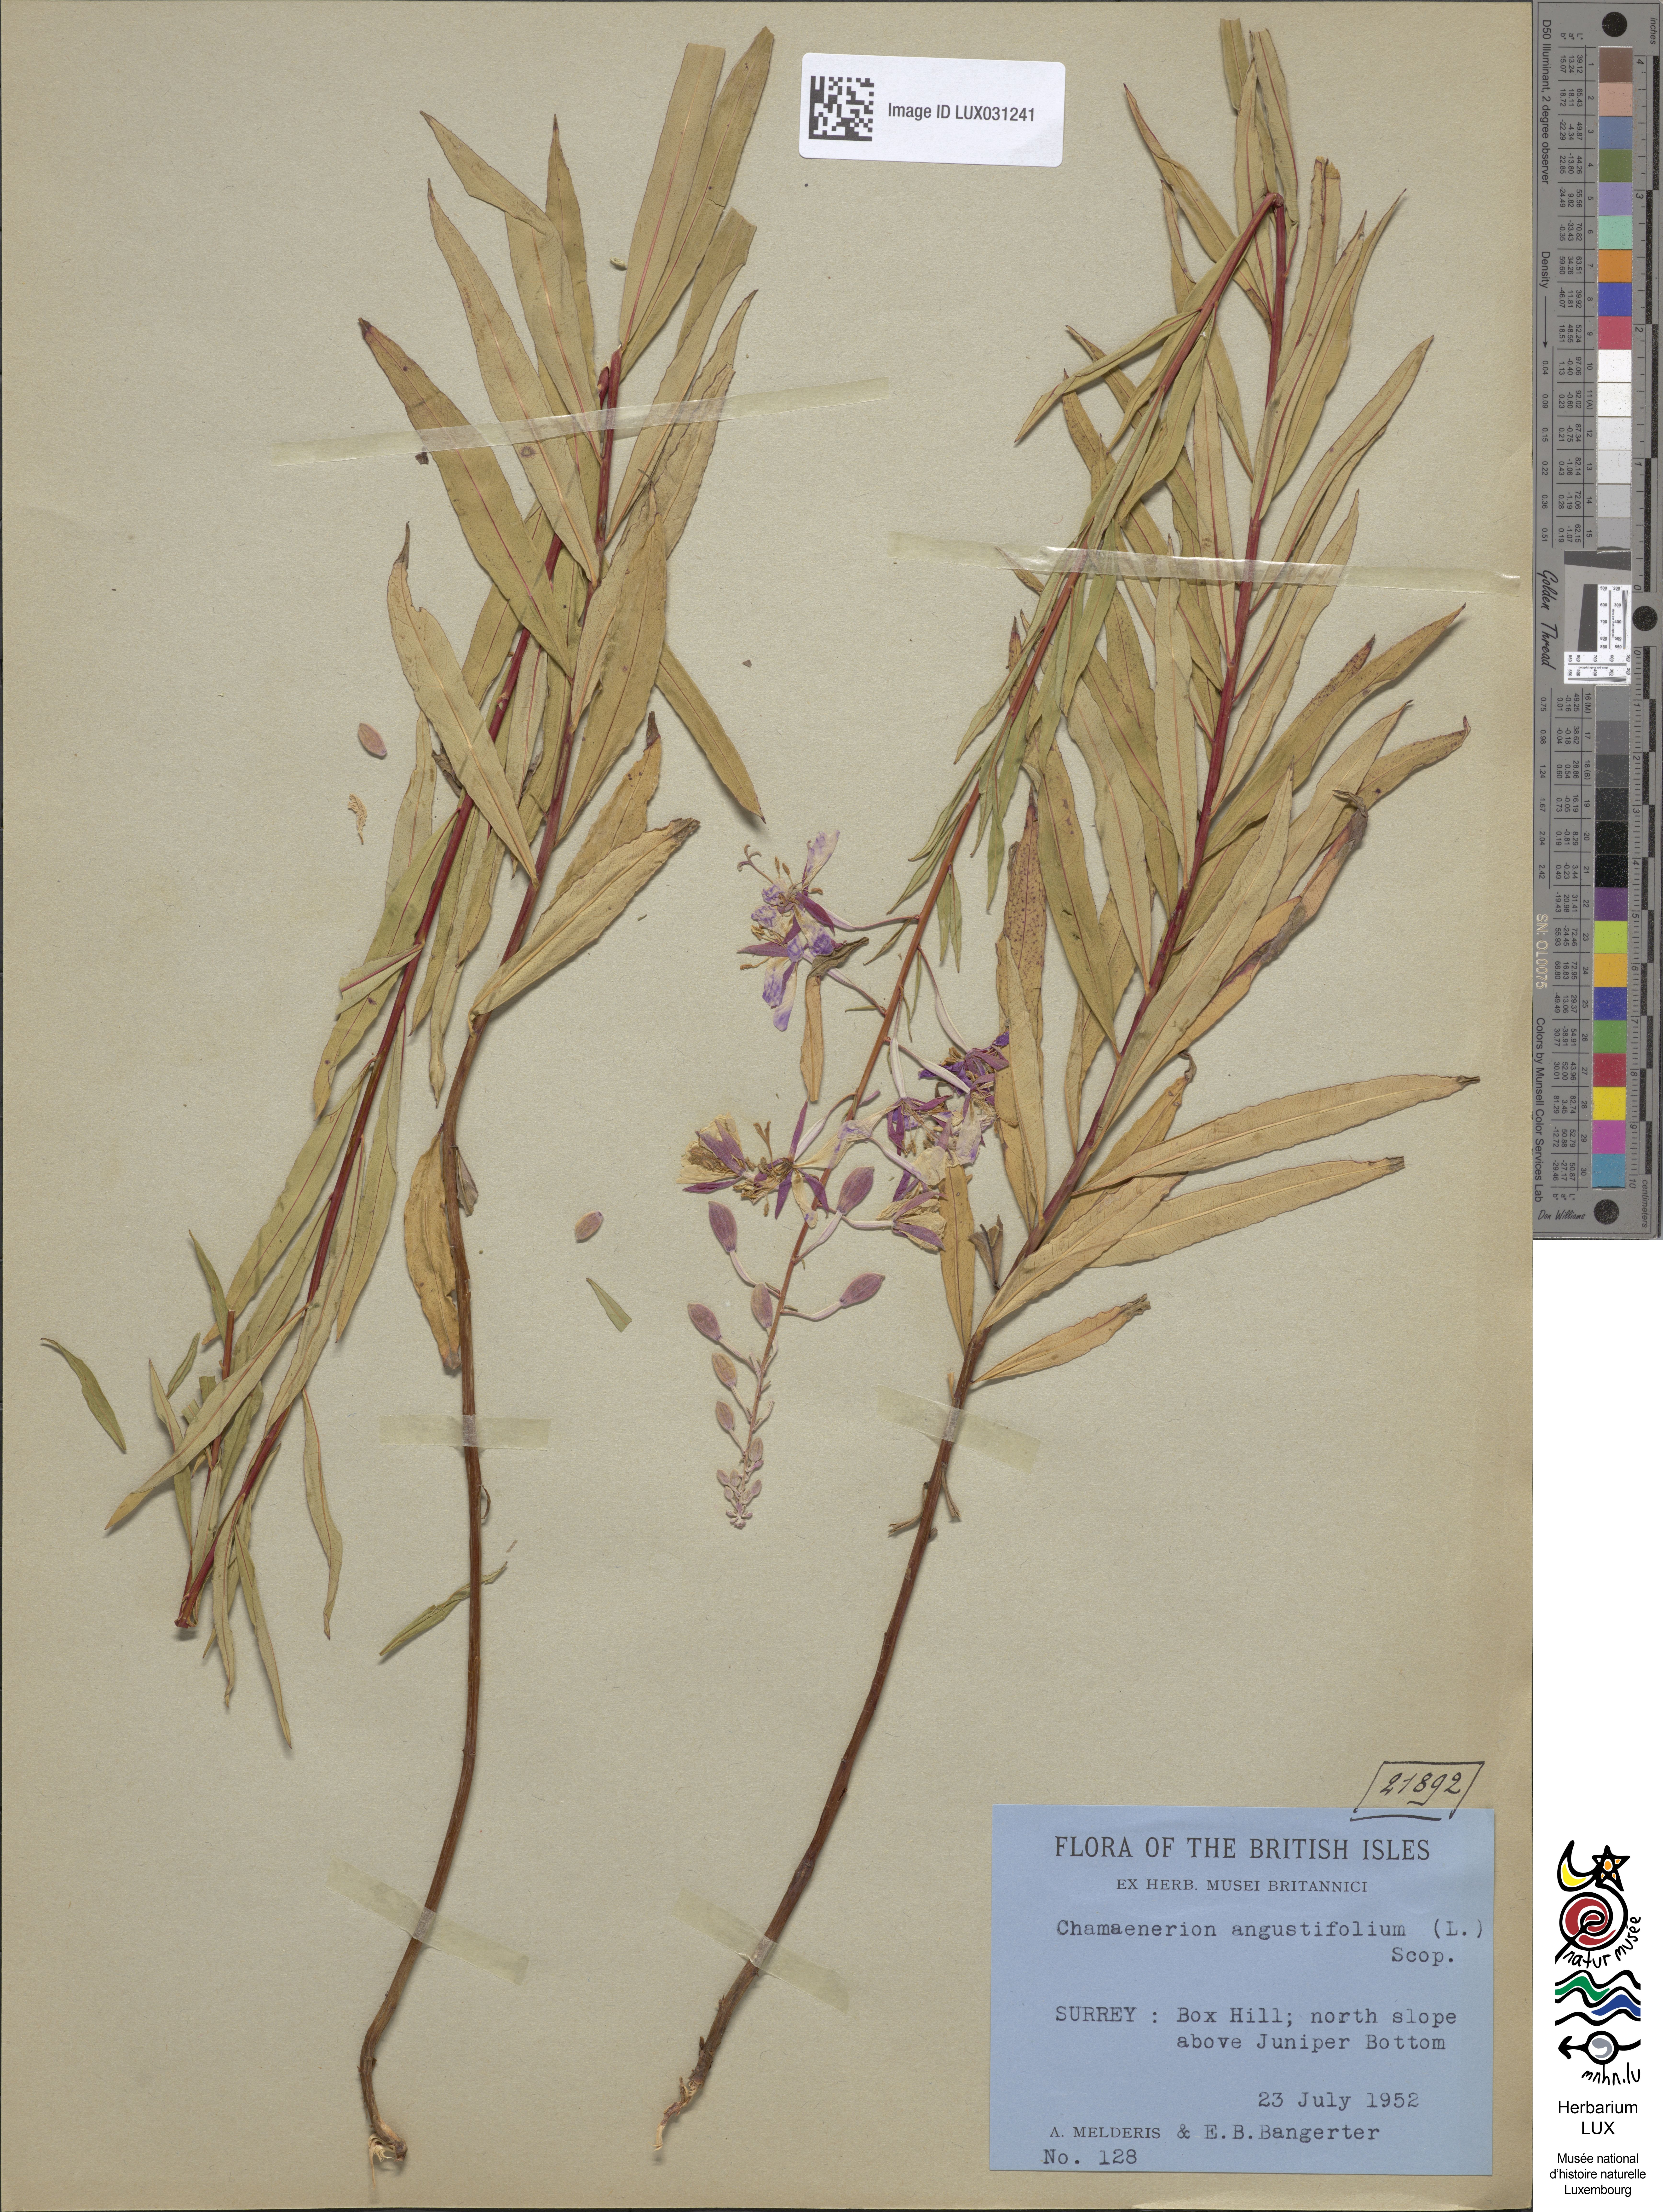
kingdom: Plantae
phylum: Tracheophyta
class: Magnoliopsida
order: Myrtales
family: Onagraceae
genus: Chamaenerion
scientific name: Chamaenerion angustifolium
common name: Fireweed
